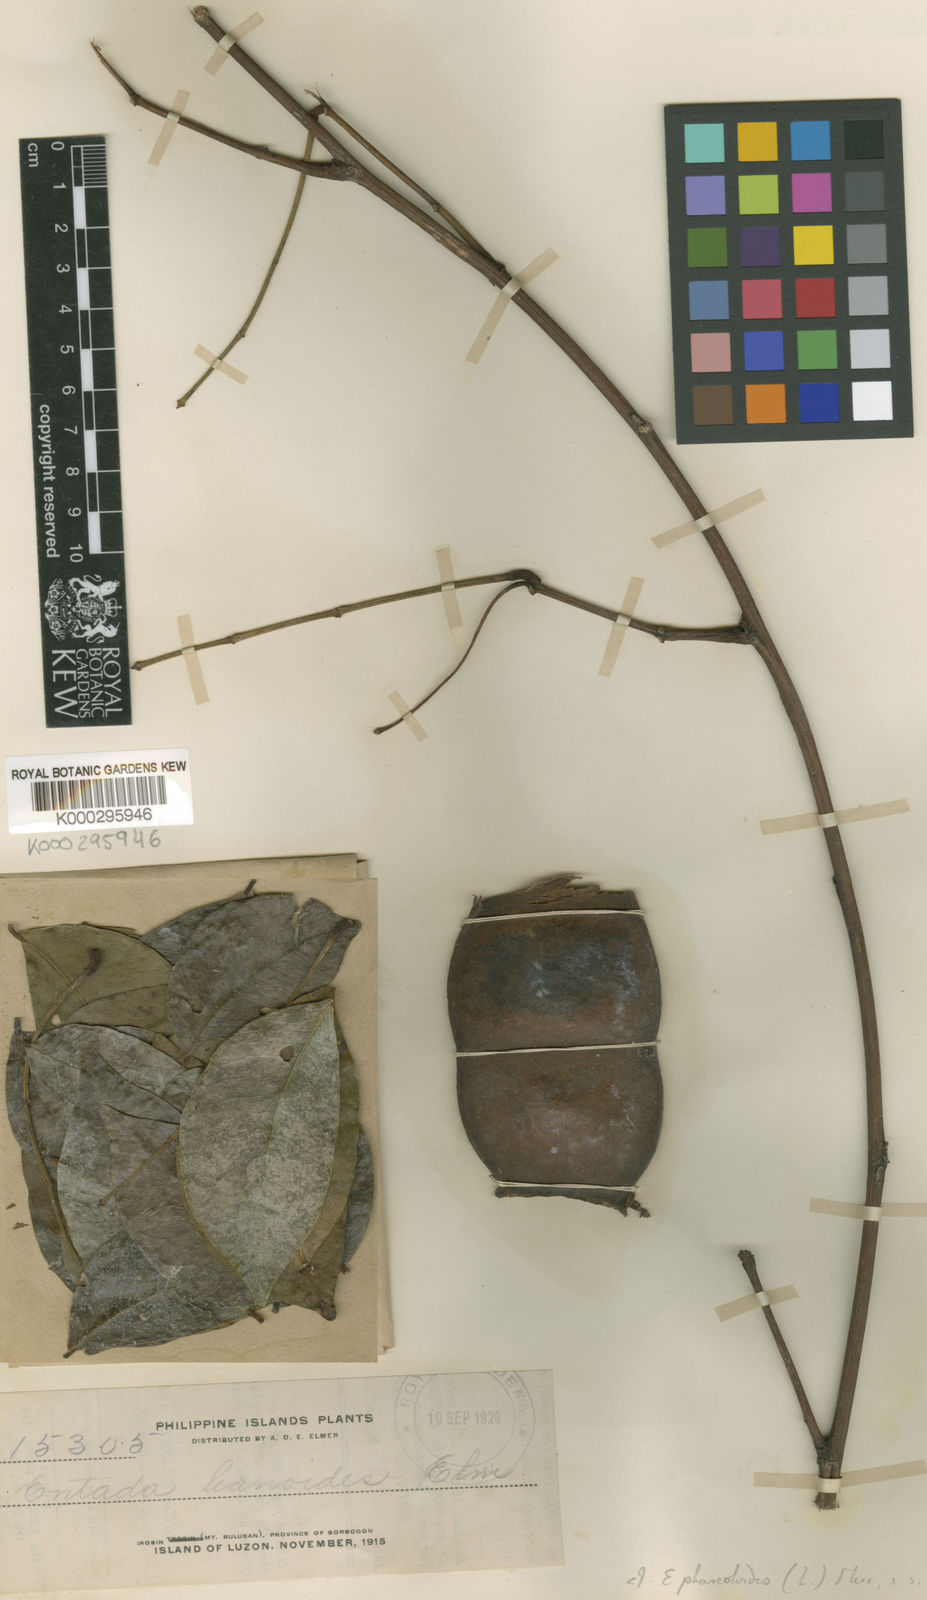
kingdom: Plantae
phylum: Tracheophyta
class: Magnoliopsida
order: Fabales
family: Fabaceae
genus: Entada
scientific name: Entada phaseoloides
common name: Matchbox-bean
